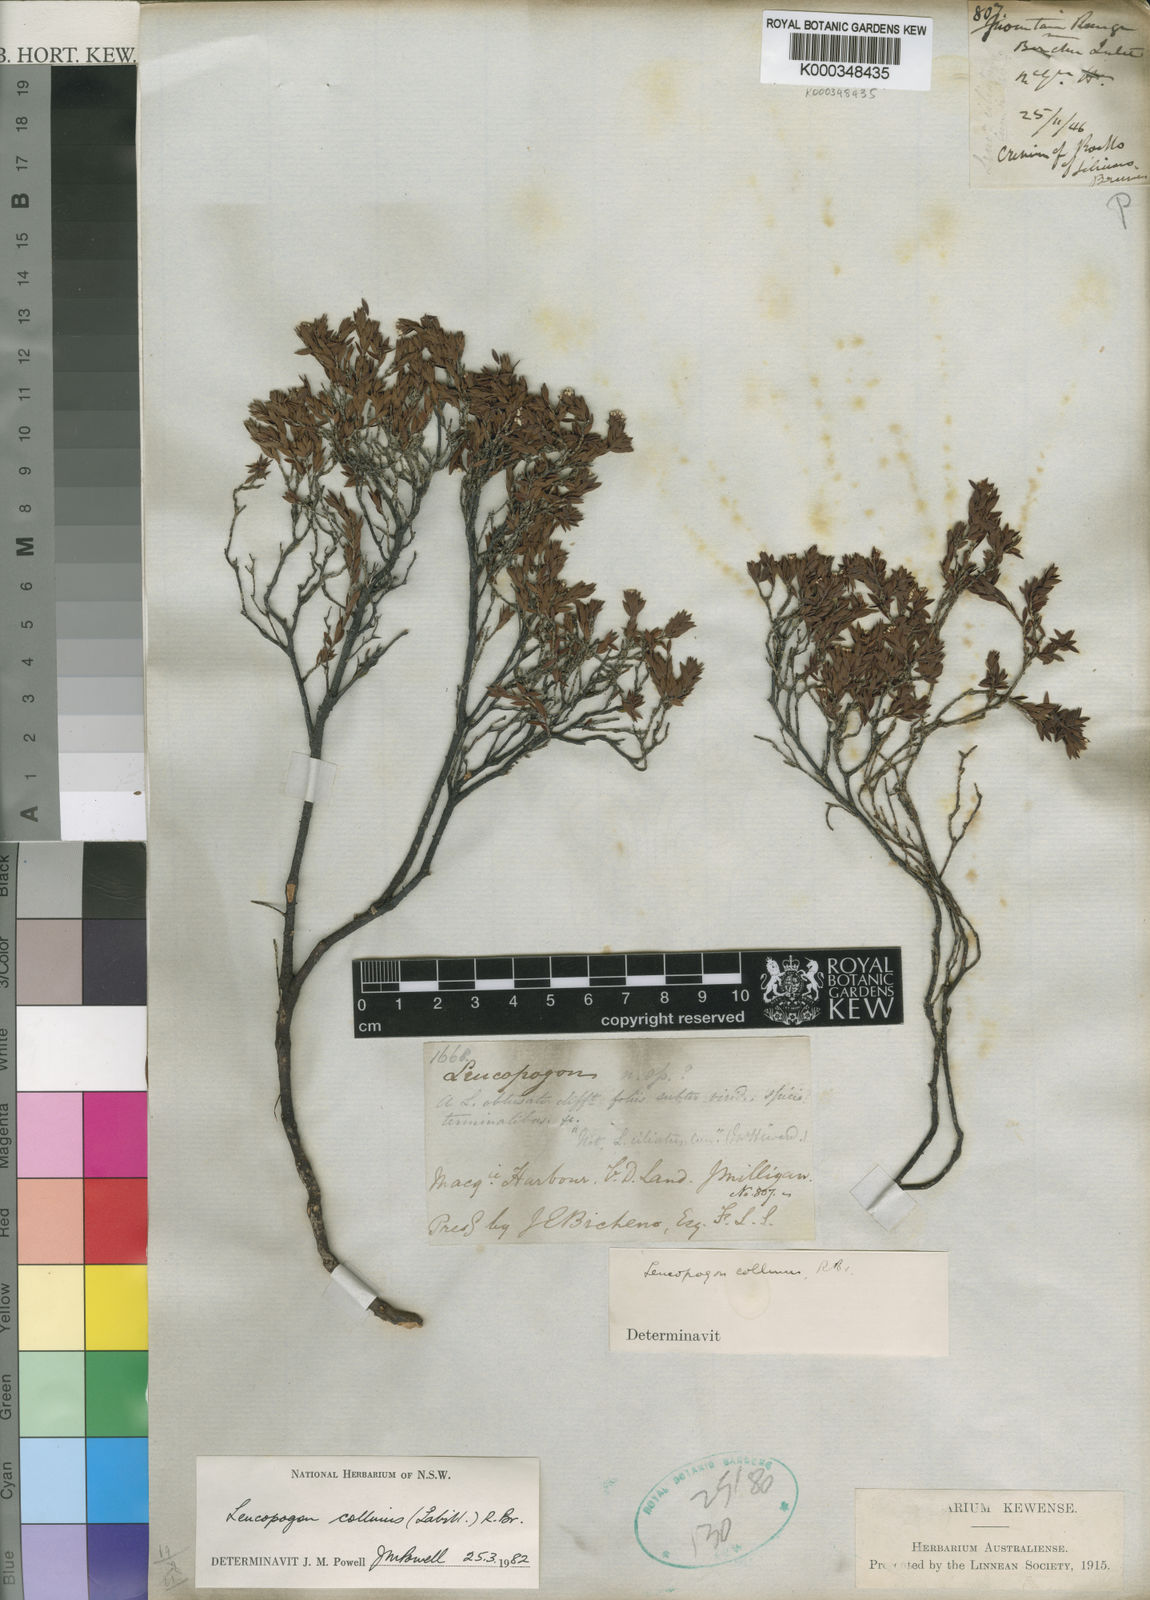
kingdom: Plantae
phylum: Tracheophyta
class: Magnoliopsida
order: Ericales
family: Ericaceae
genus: Leucopogon
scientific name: Leucopogon collinus
